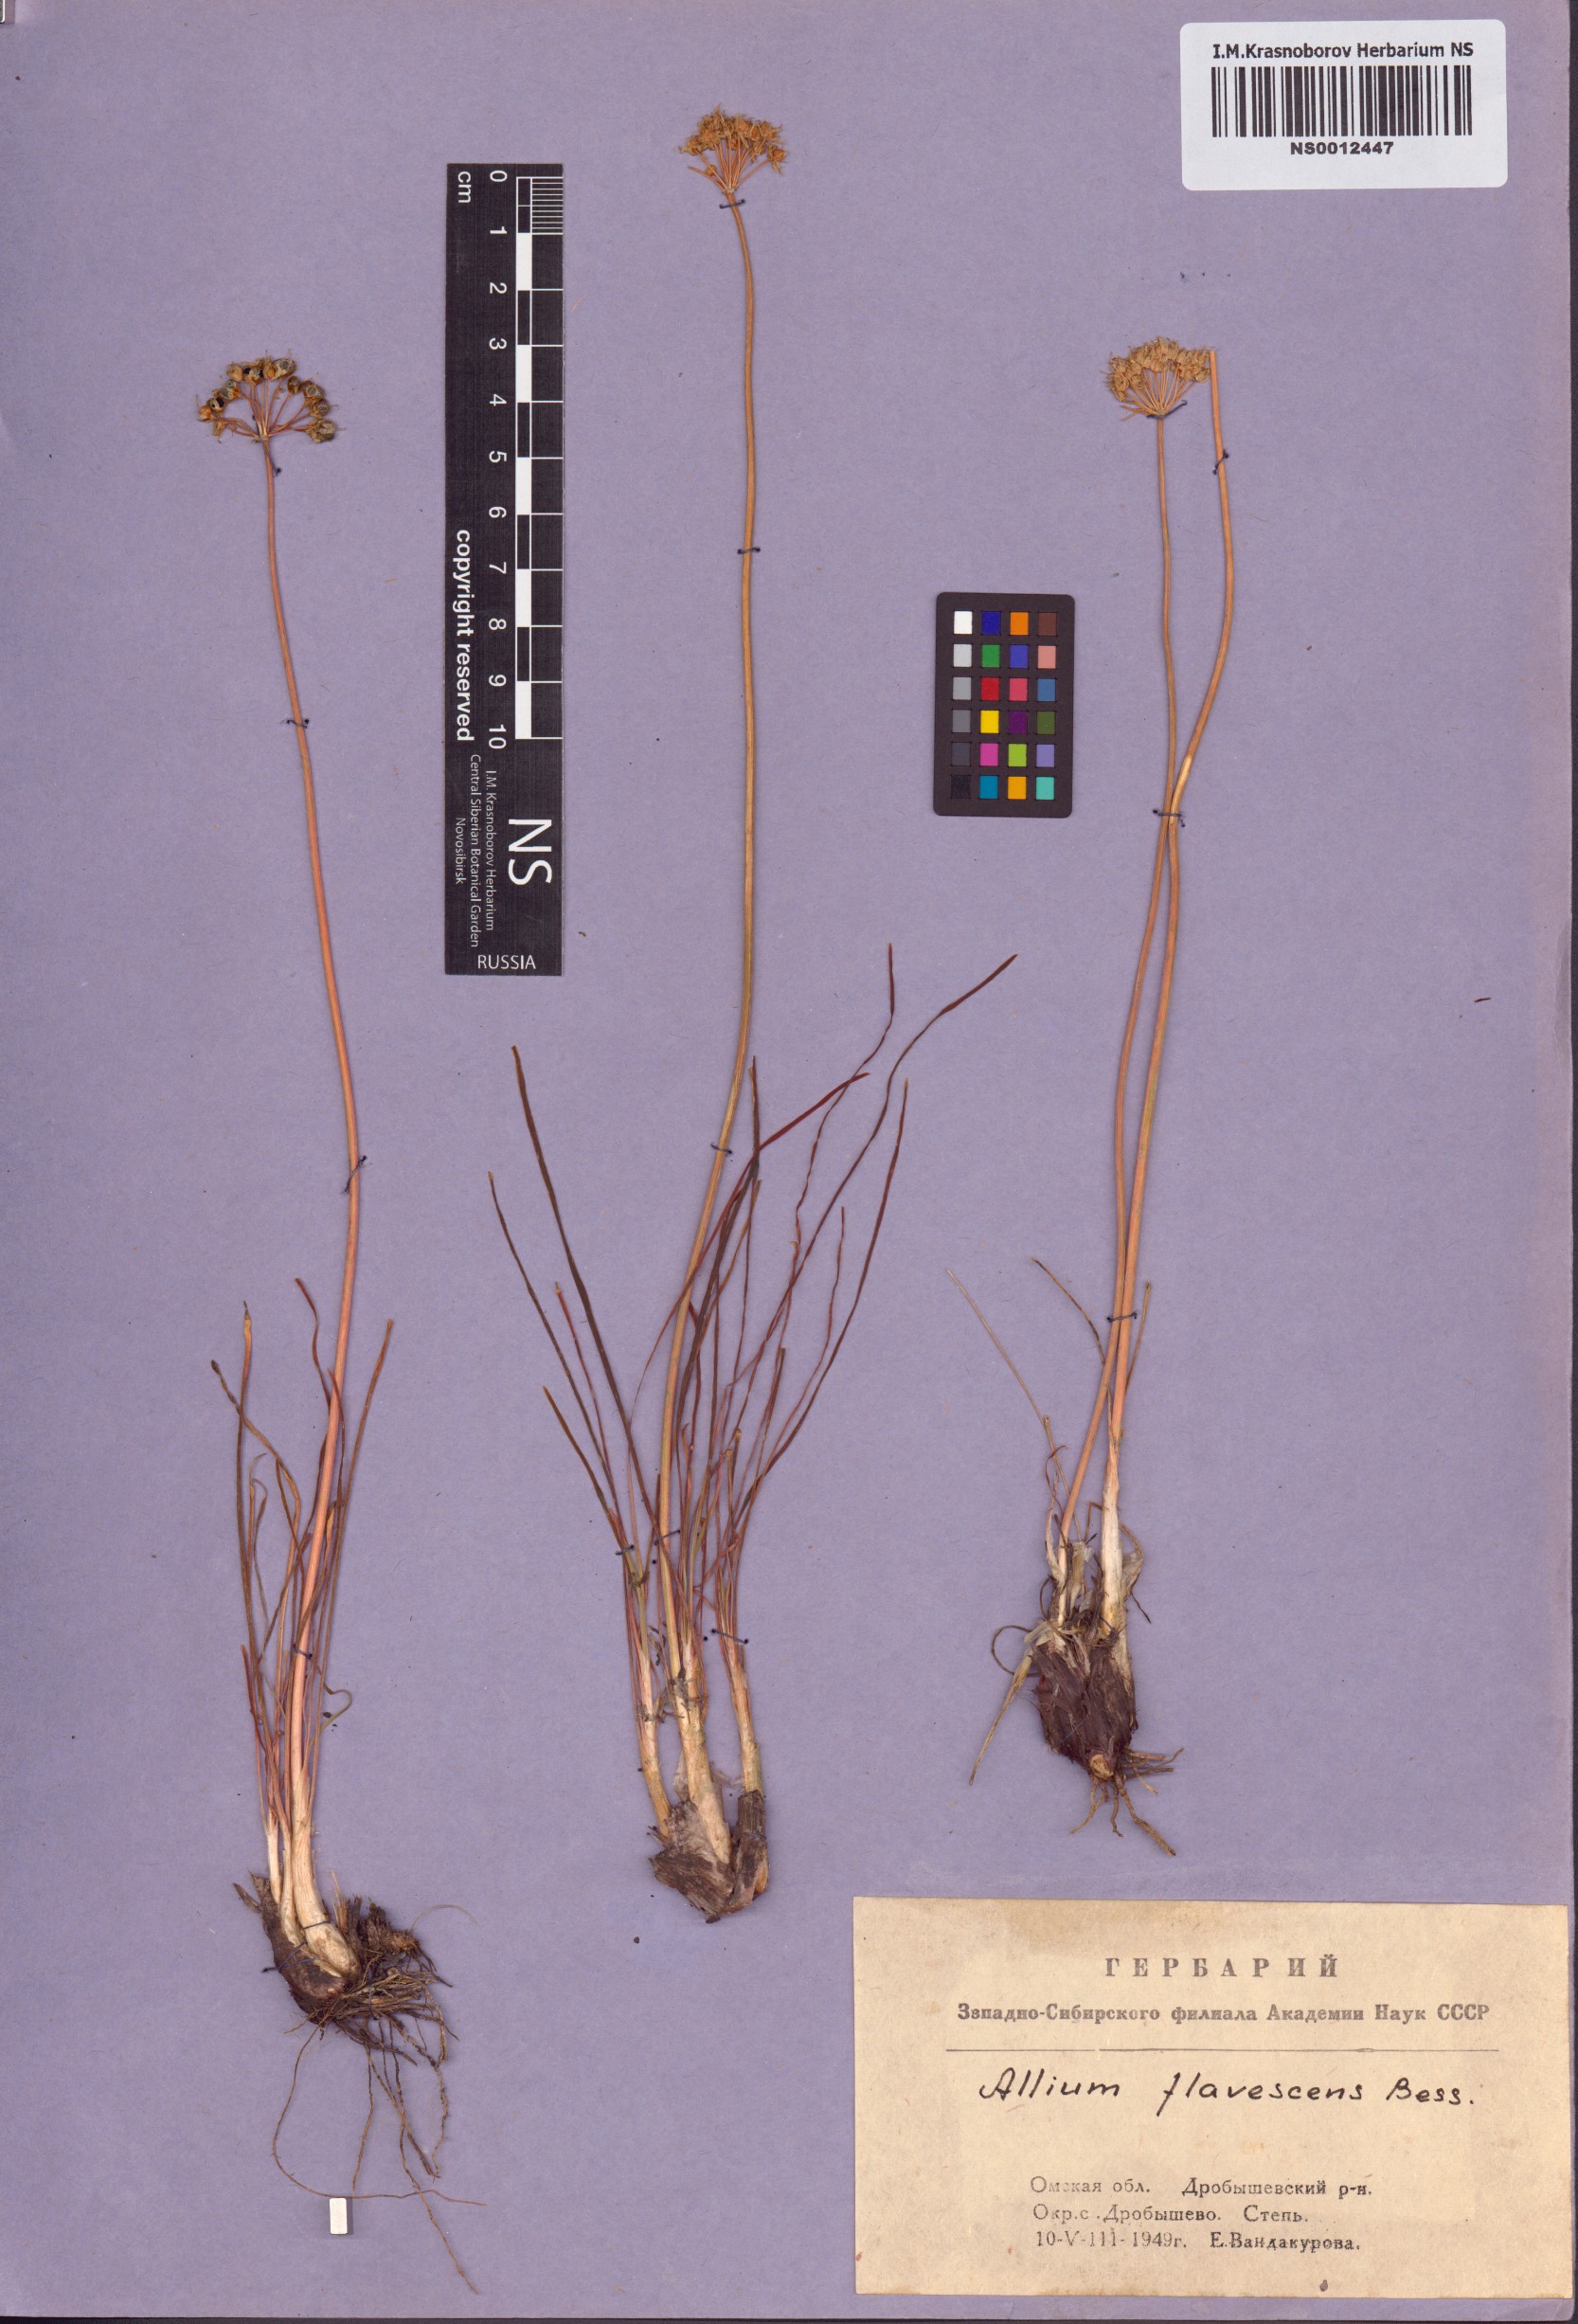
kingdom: Plantae
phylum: Tracheophyta
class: Liliopsida
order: Asparagales
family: Amaryllidaceae
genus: Allium
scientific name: Allium flavescens
